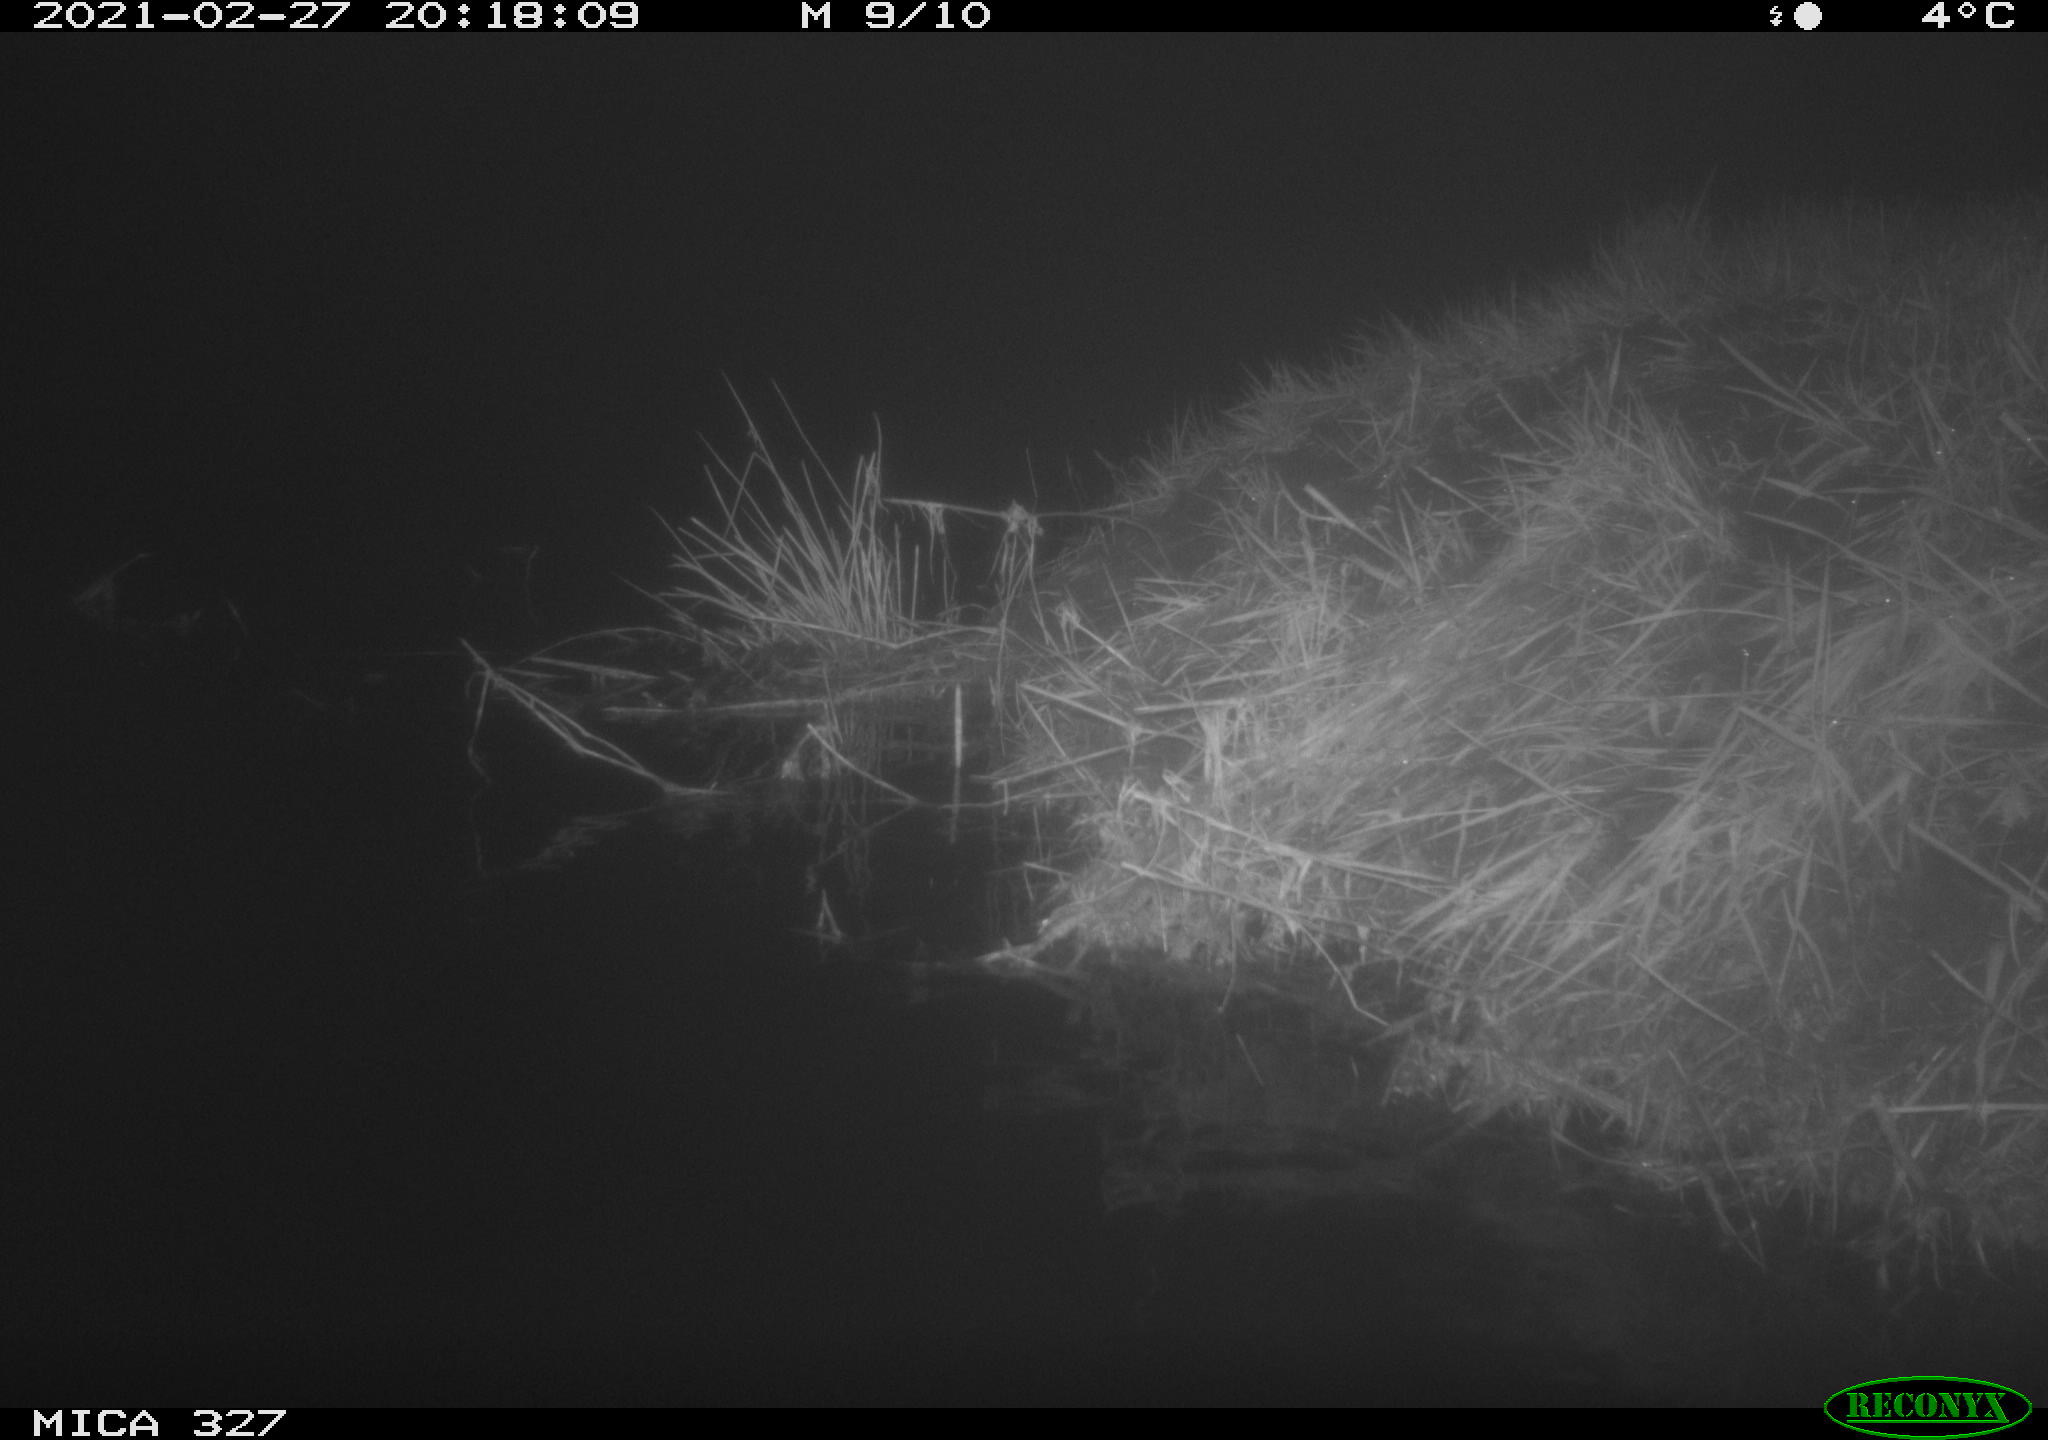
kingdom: Animalia
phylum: Chordata
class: Mammalia
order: Rodentia
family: Cricetidae
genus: Ondatra
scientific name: Ondatra zibethicus
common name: Muskrat
